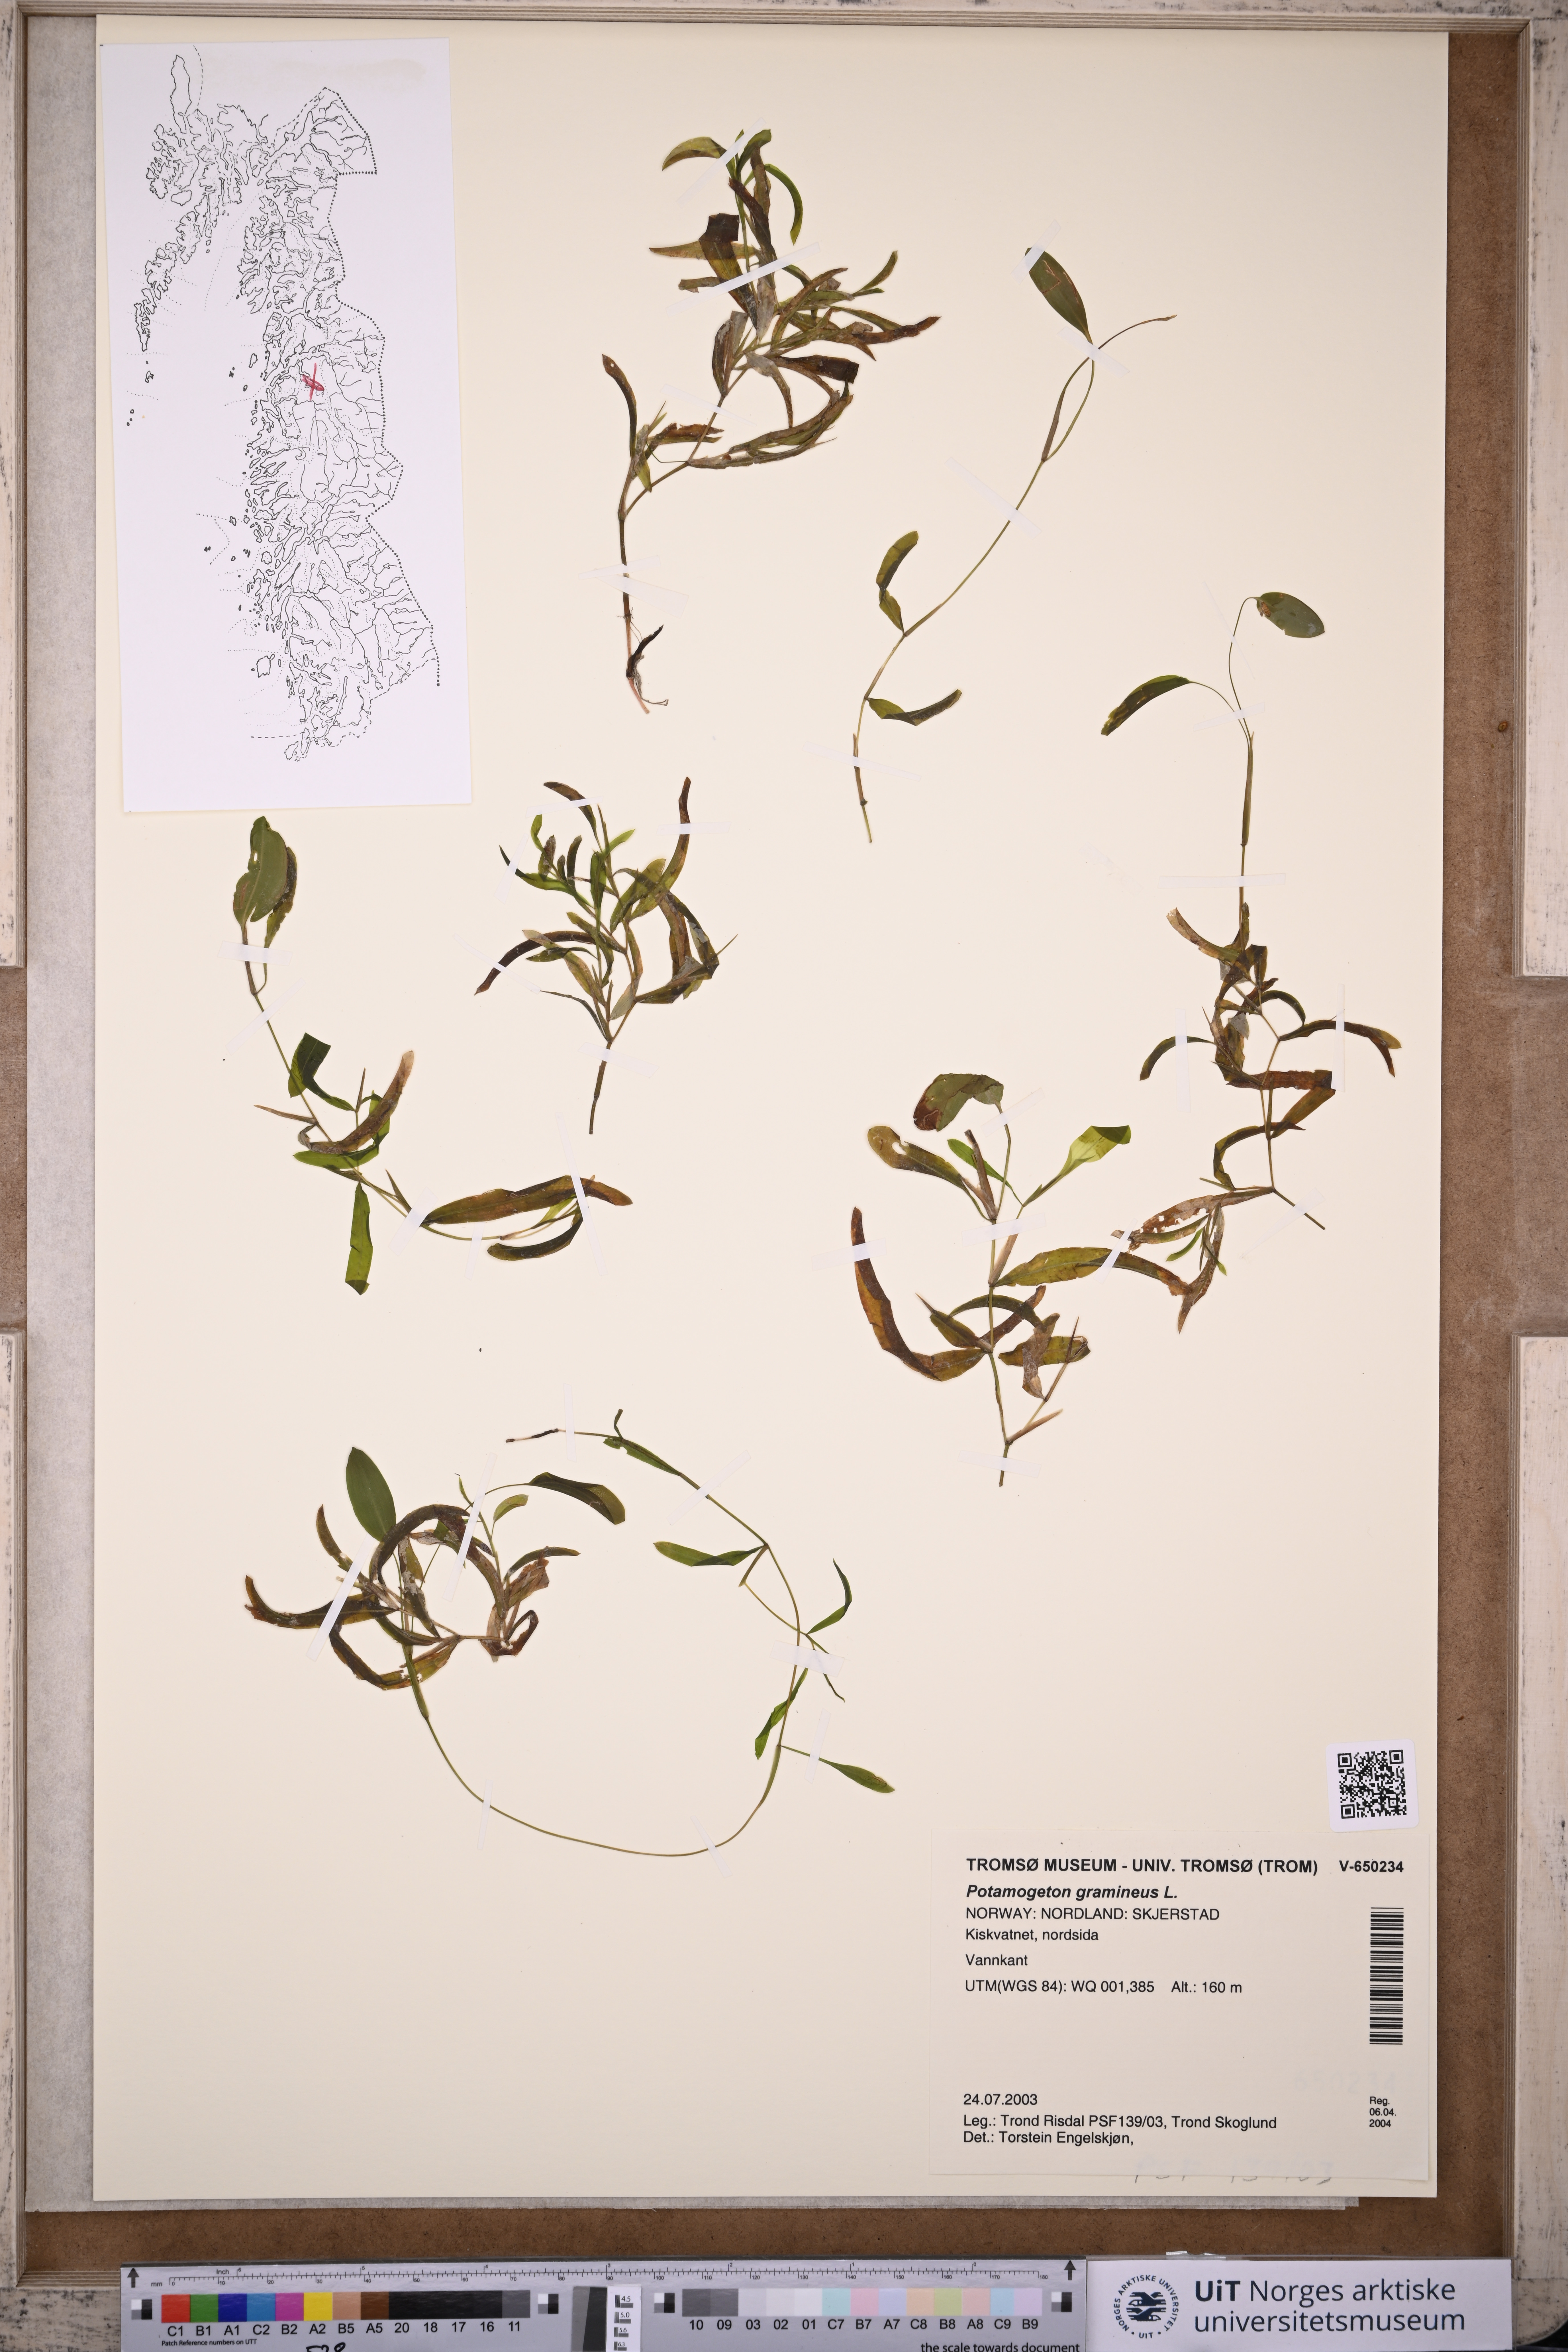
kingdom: Plantae
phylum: Tracheophyta
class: Liliopsida
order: Alismatales
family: Potamogetonaceae
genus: Potamogeton
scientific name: Potamogeton gramineus
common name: Various-leaved pondweed
